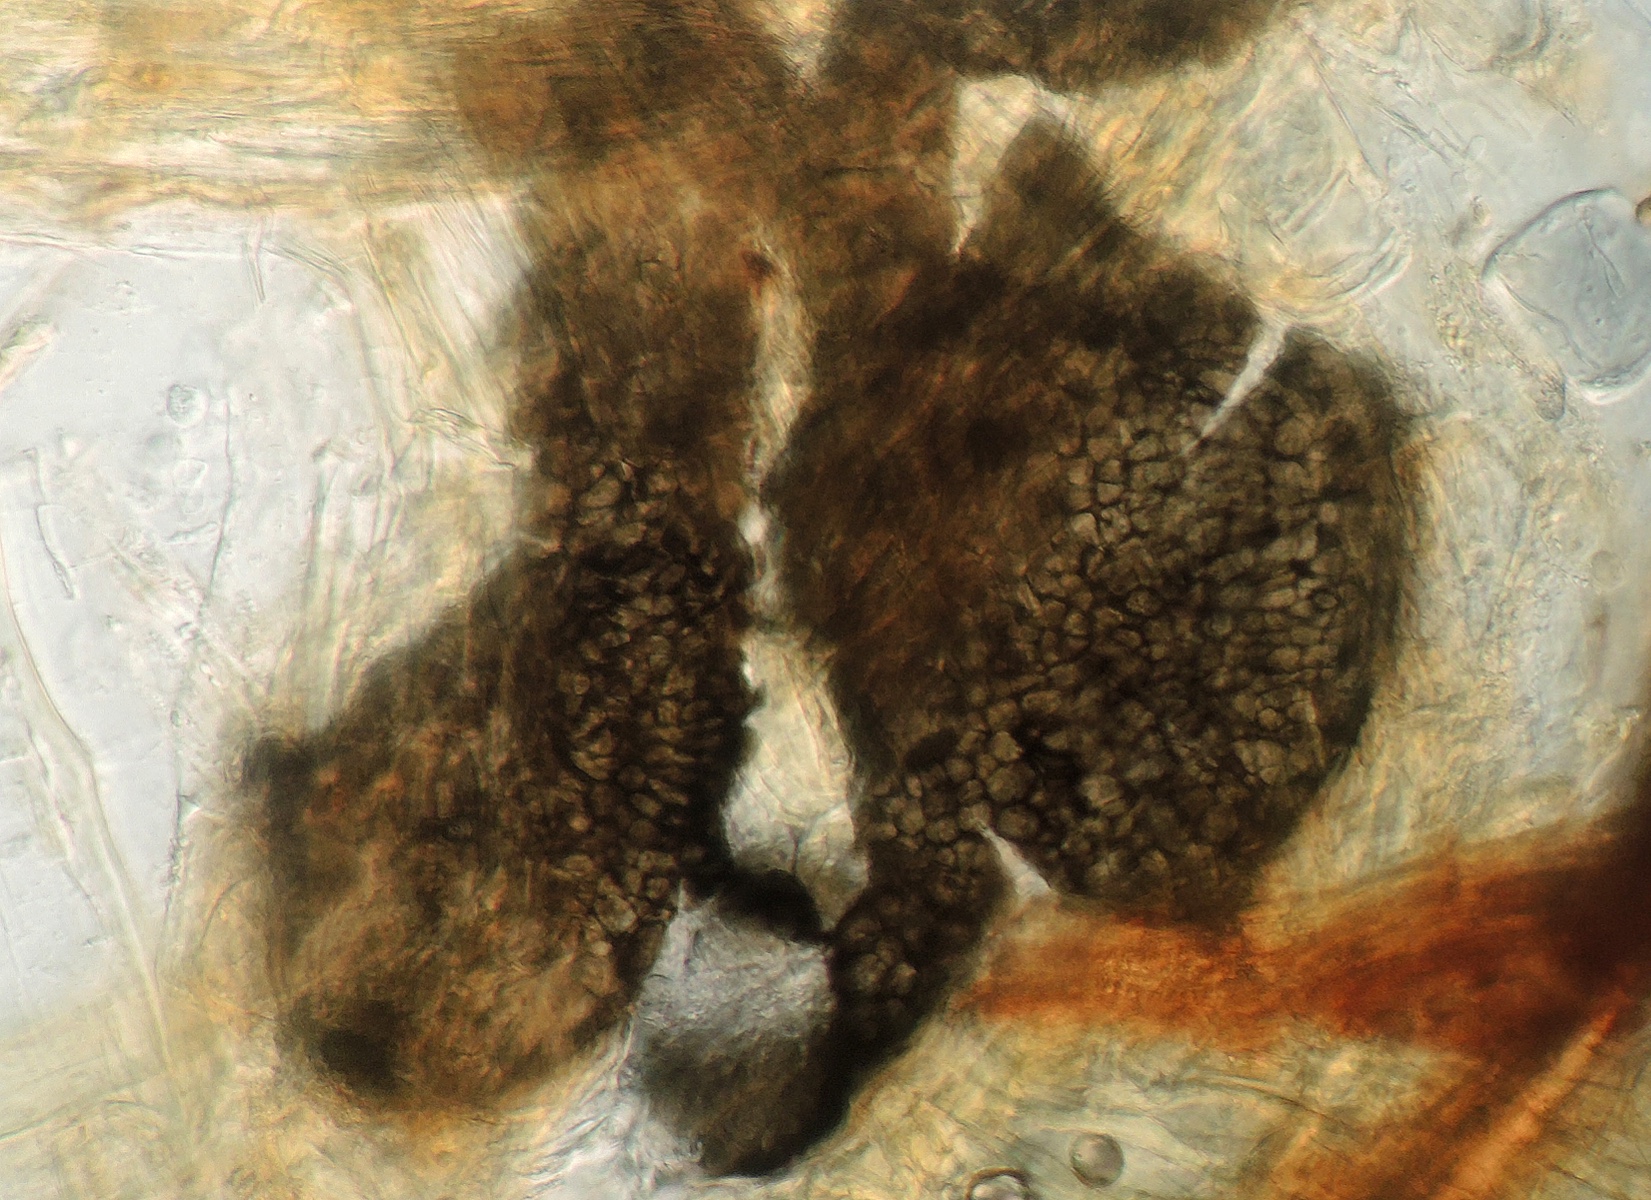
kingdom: Fungi
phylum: Ascomycota
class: Dothideomycetes
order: Pleosporales
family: Pleosporaceae
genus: Stemphylium
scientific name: Stemphylium vesicarium
